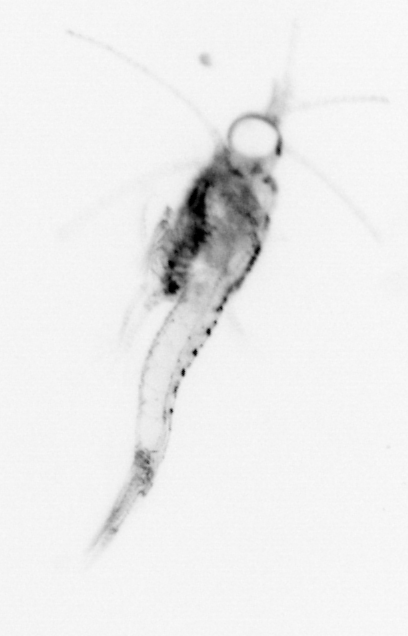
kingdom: Animalia
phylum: Arthropoda
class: Malacostraca
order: Decapoda
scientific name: Decapoda
